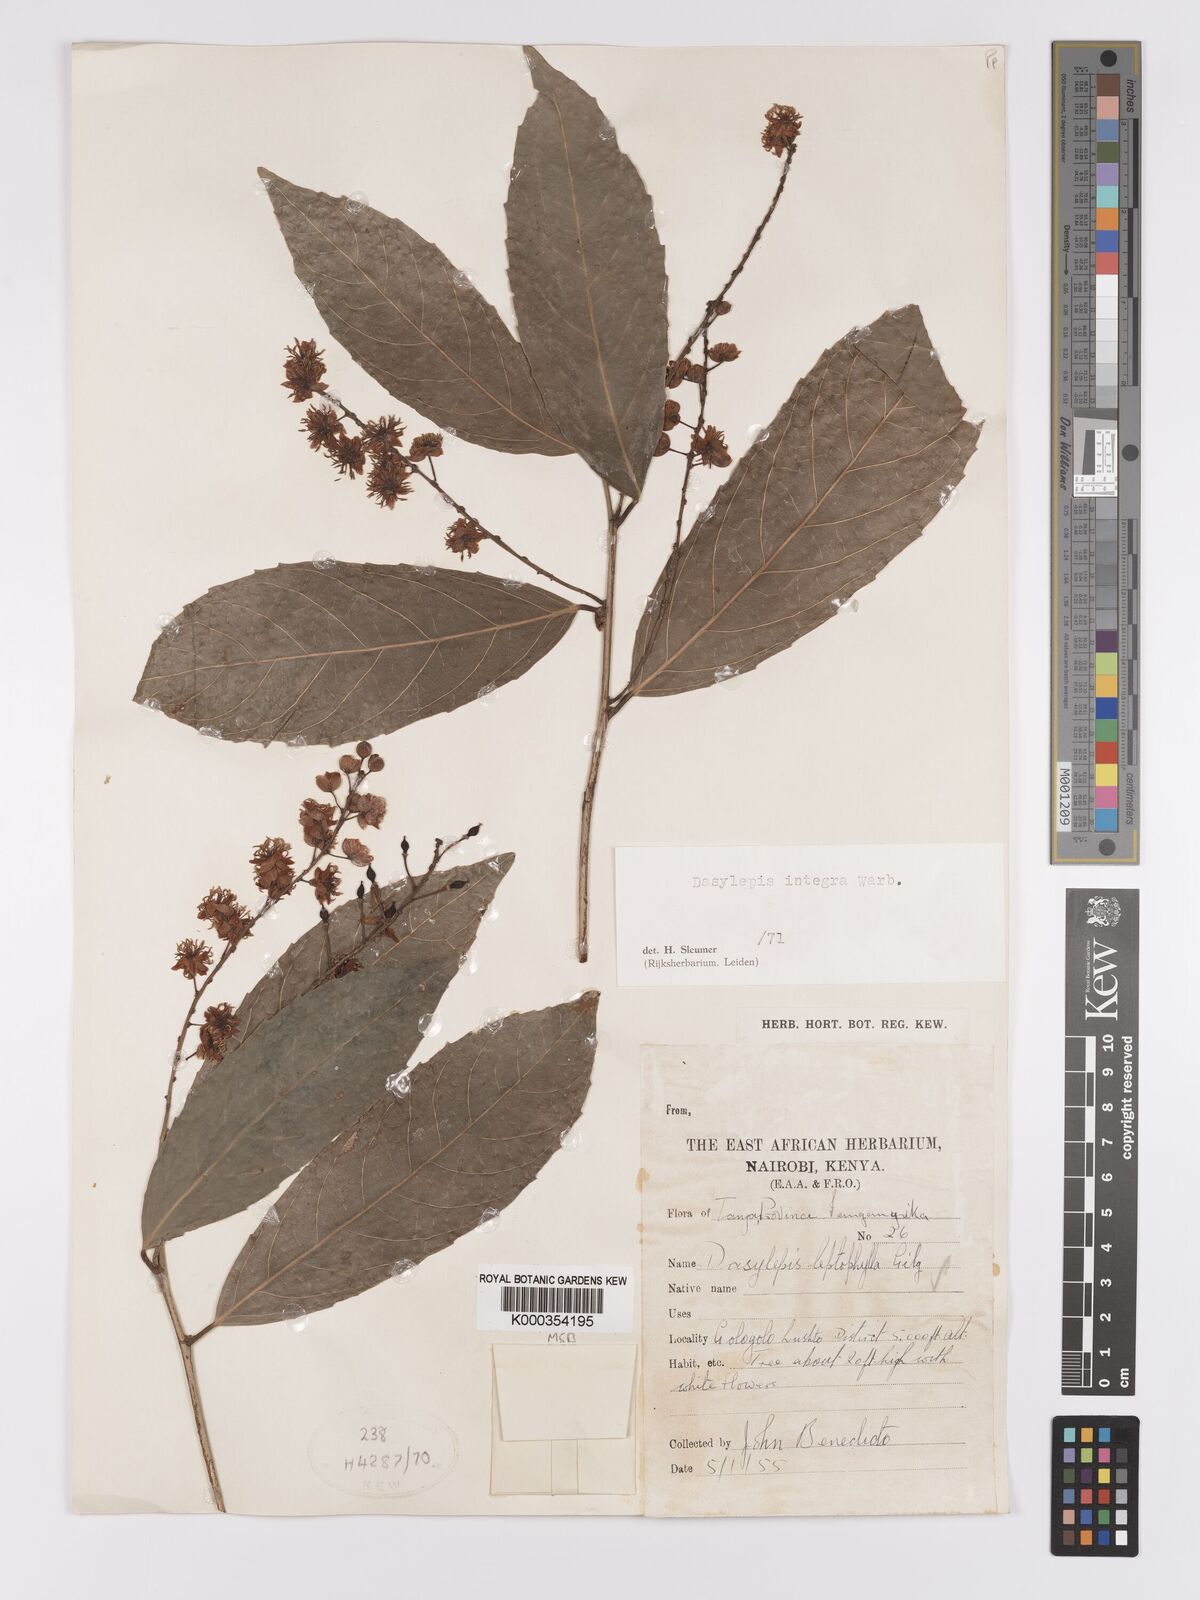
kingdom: Plantae
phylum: Tracheophyta
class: Magnoliopsida
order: Malpighiales
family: Achariaceae
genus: Dasylepis
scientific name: Dasylepis integra
